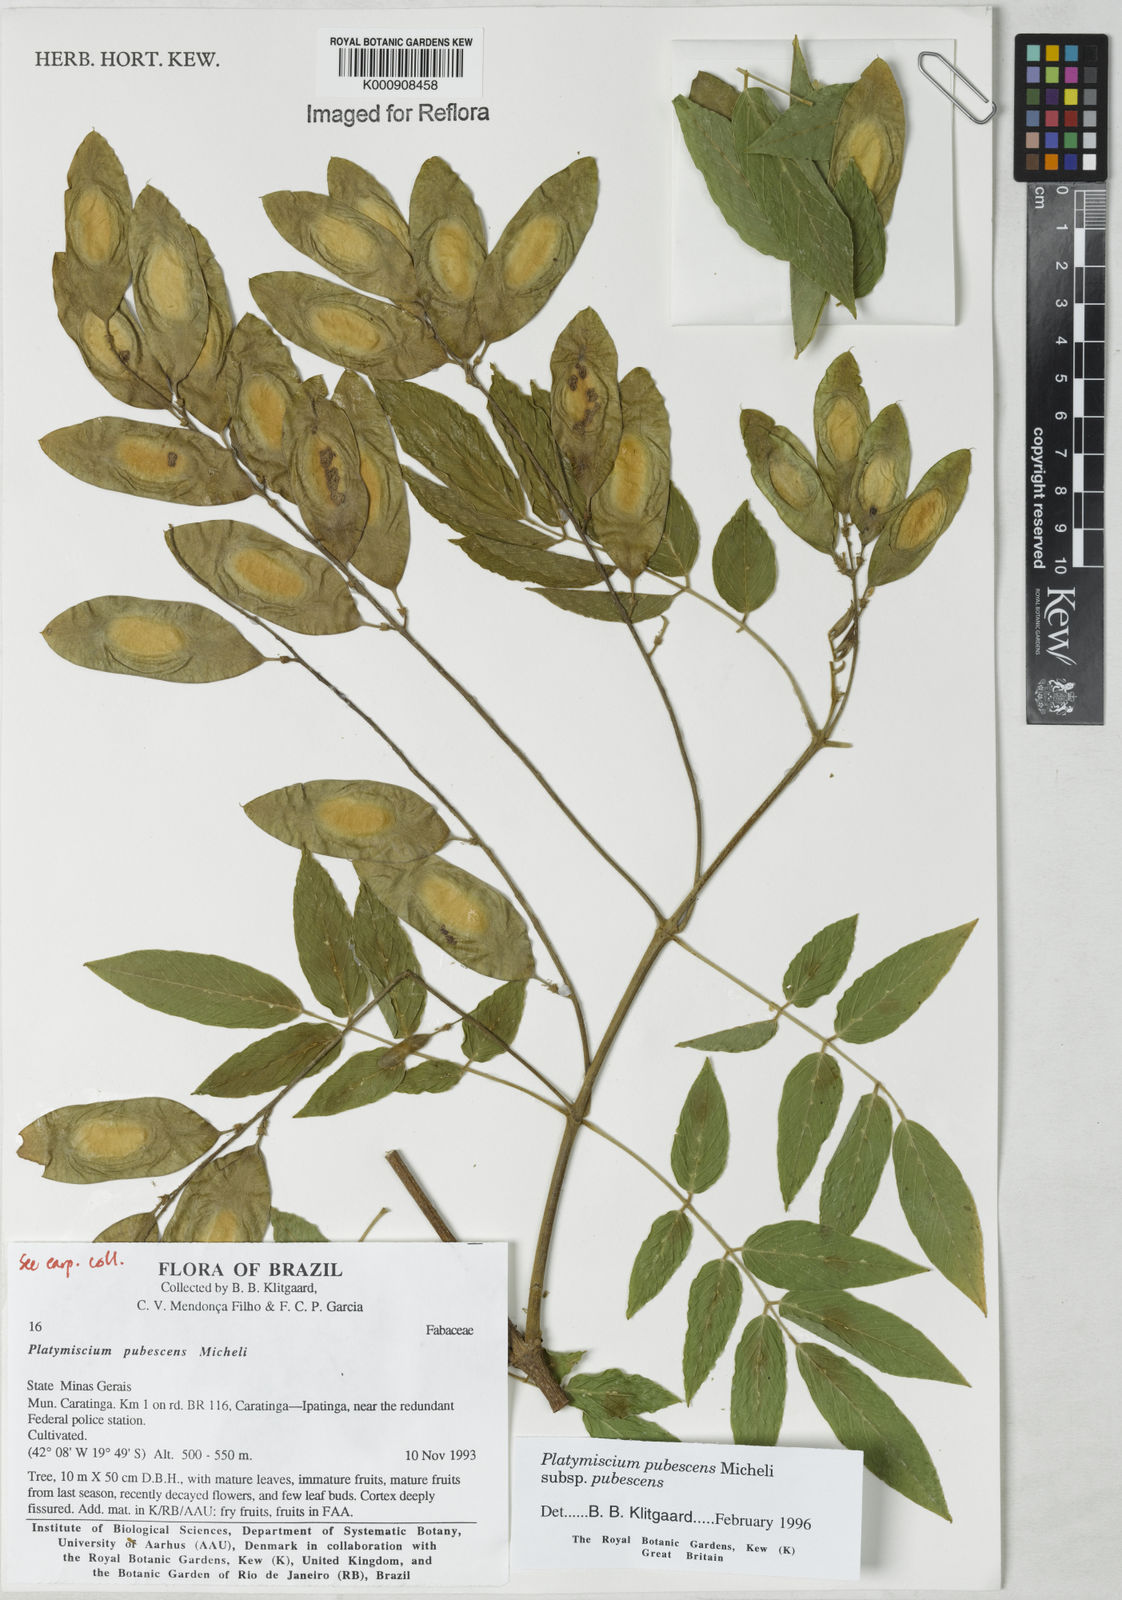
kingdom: Plantae
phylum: Tracheophyta
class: Magnoliopsida
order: Fabales
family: Fabaceae
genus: Platymiscium
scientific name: Platymiscium pubescens
